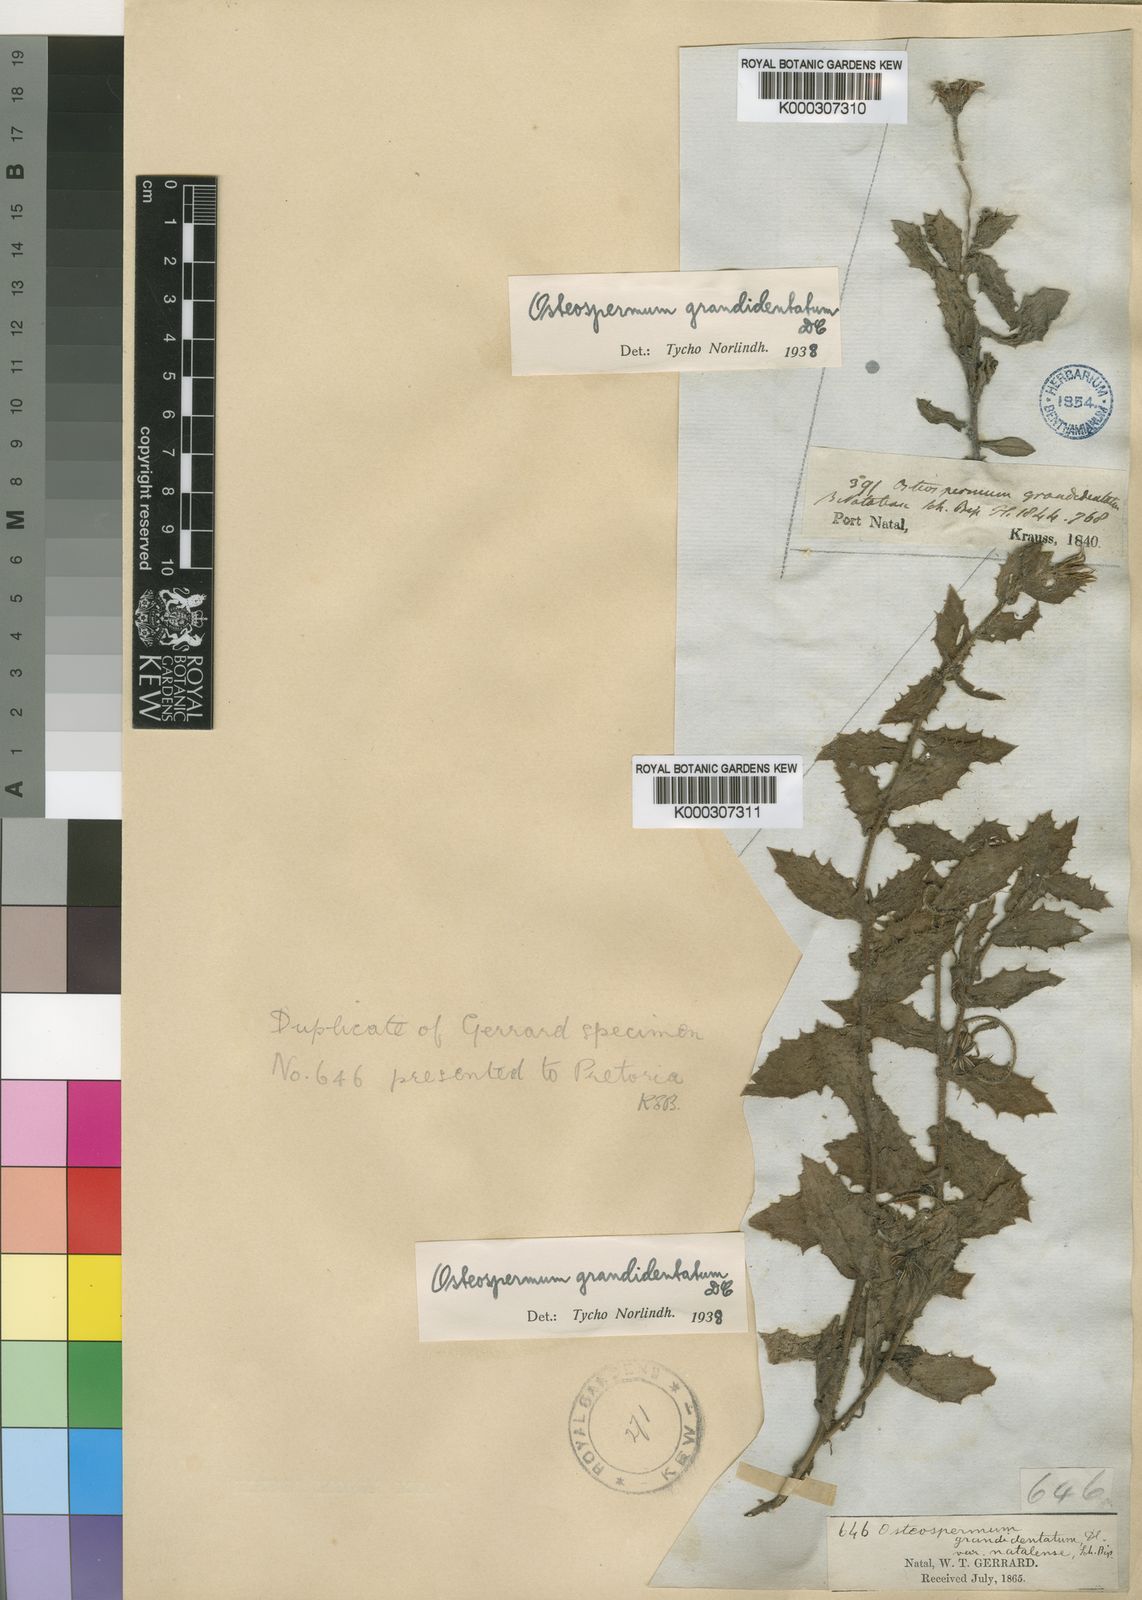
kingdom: Plantae
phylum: Tracheophyta
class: Magnoliopsida
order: Asterales
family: Asteraceae
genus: Osteospermum
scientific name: Osteospermum grandidentatum
